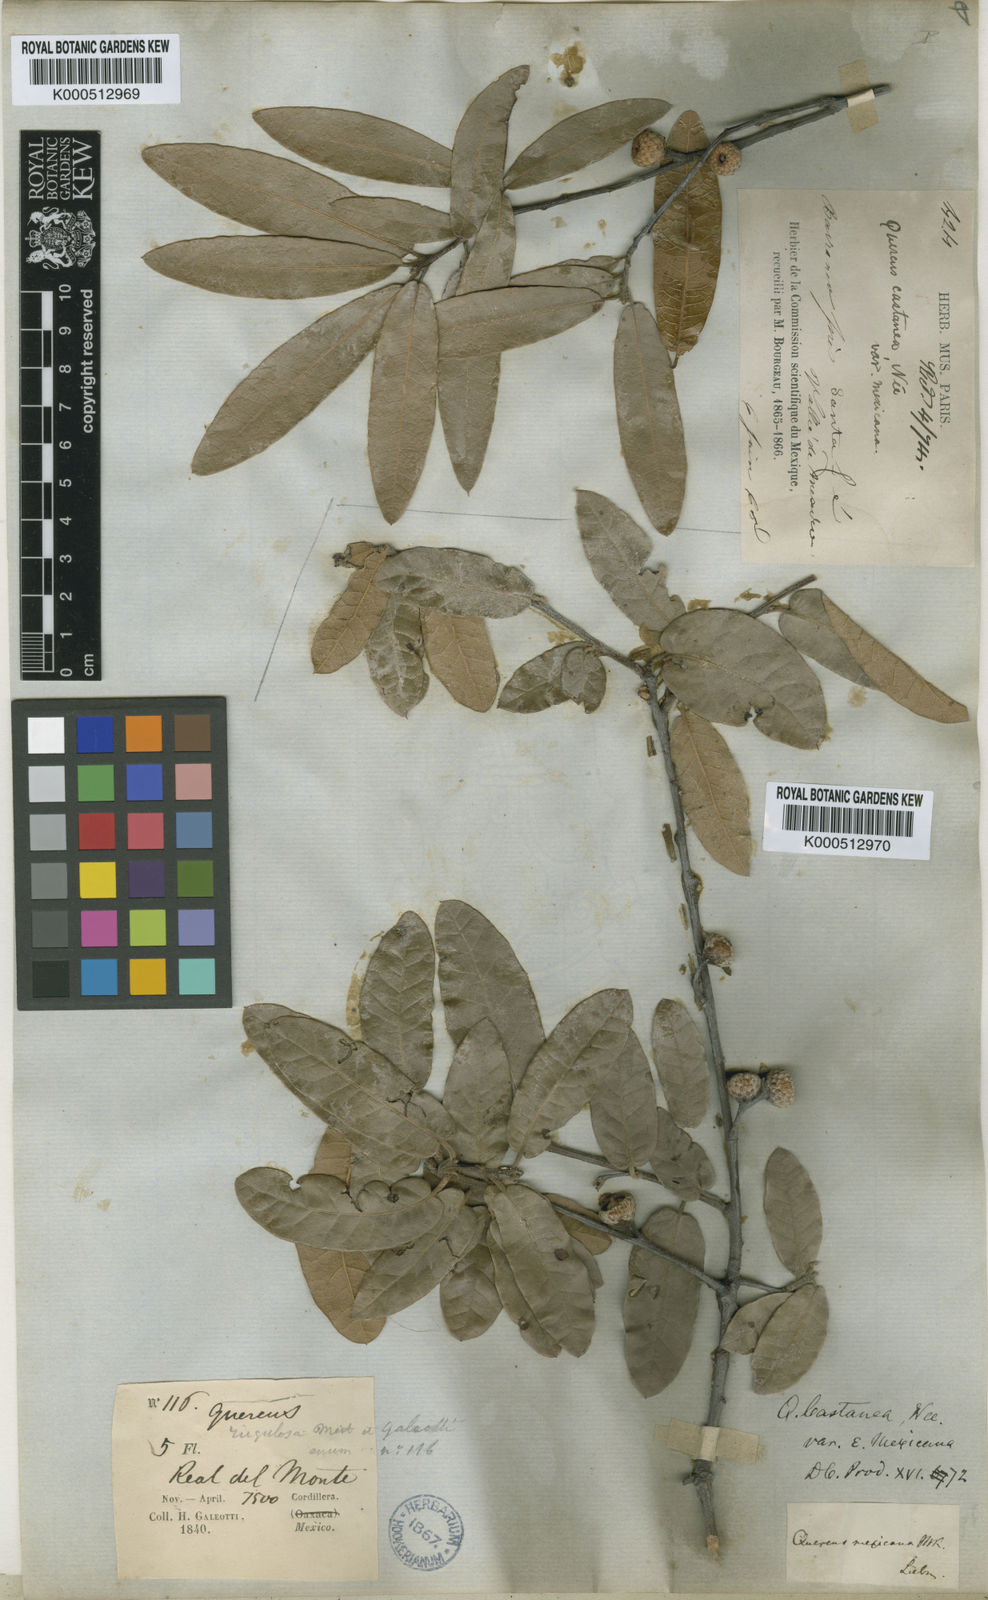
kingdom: Plantae
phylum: Tracheophyta
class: Magnoliopsida
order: Fagales
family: Fagaceae
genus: Quercus
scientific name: Quercus mexicana
